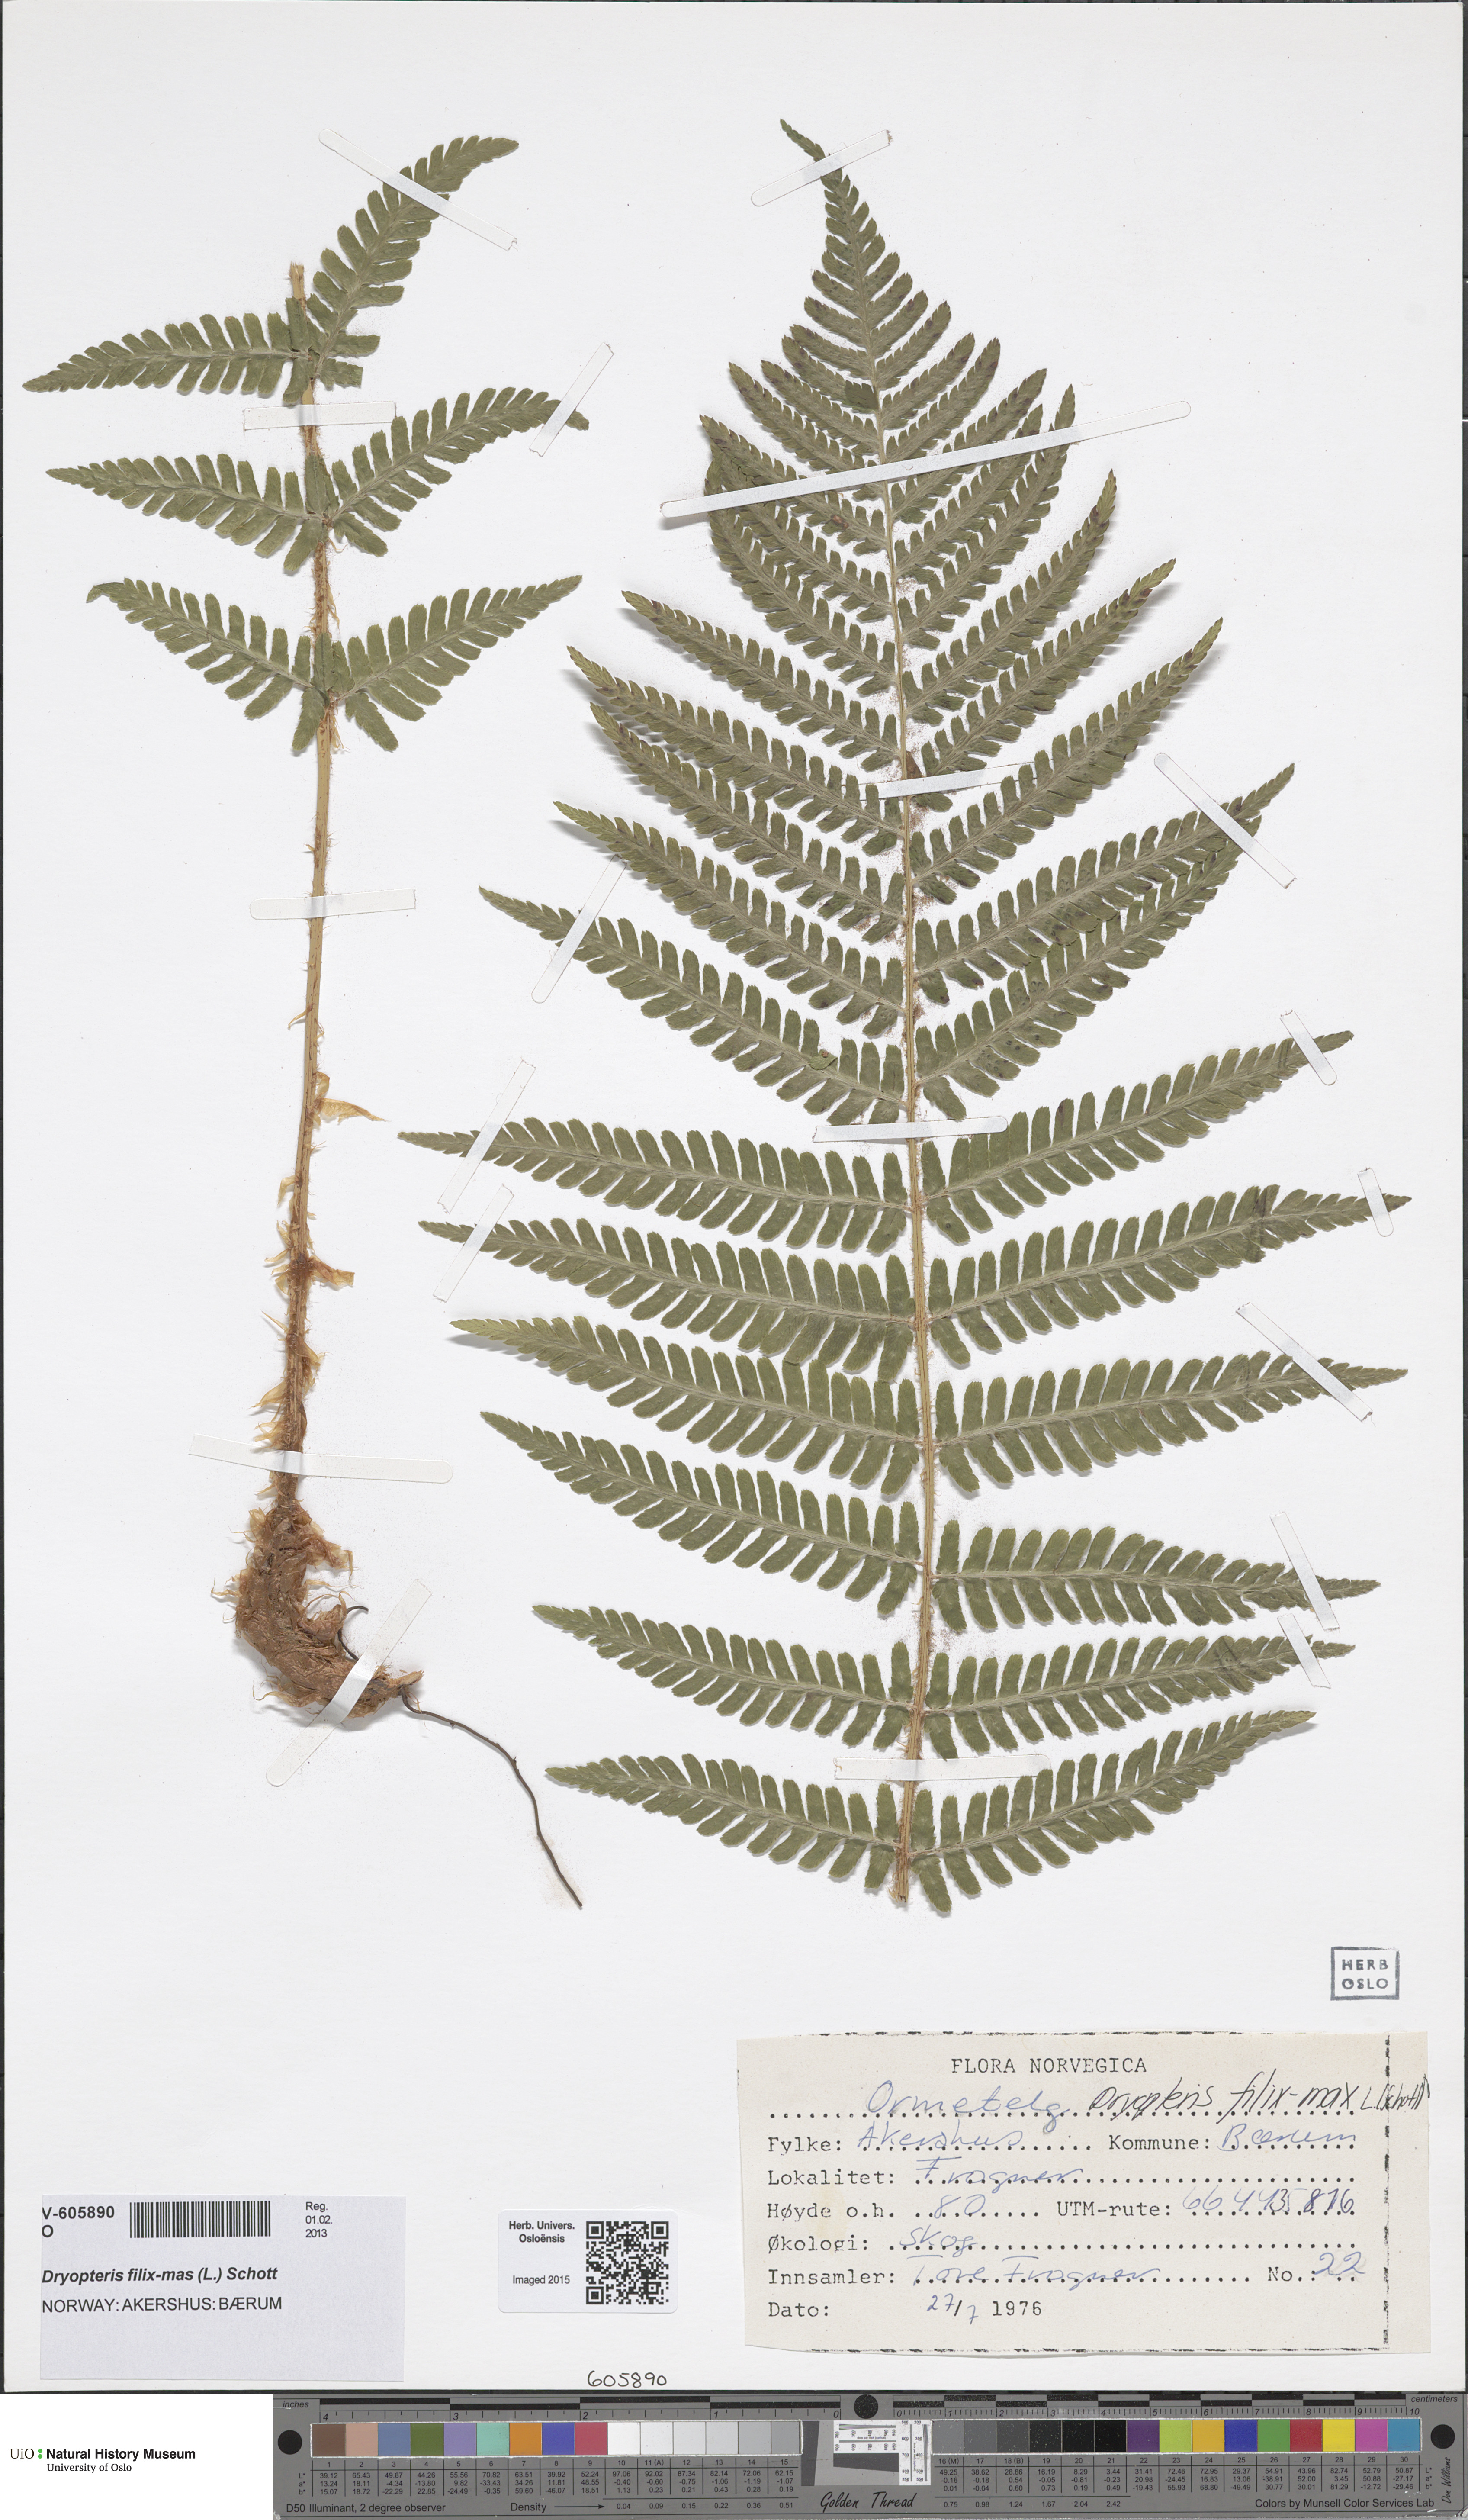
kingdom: Plantae
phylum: Tracheophyta
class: Polypodiopsida
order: Polypodiales
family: Dryopteridaceae
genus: Dryopteris
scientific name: Dryopteris filix-mas
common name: Male fern
